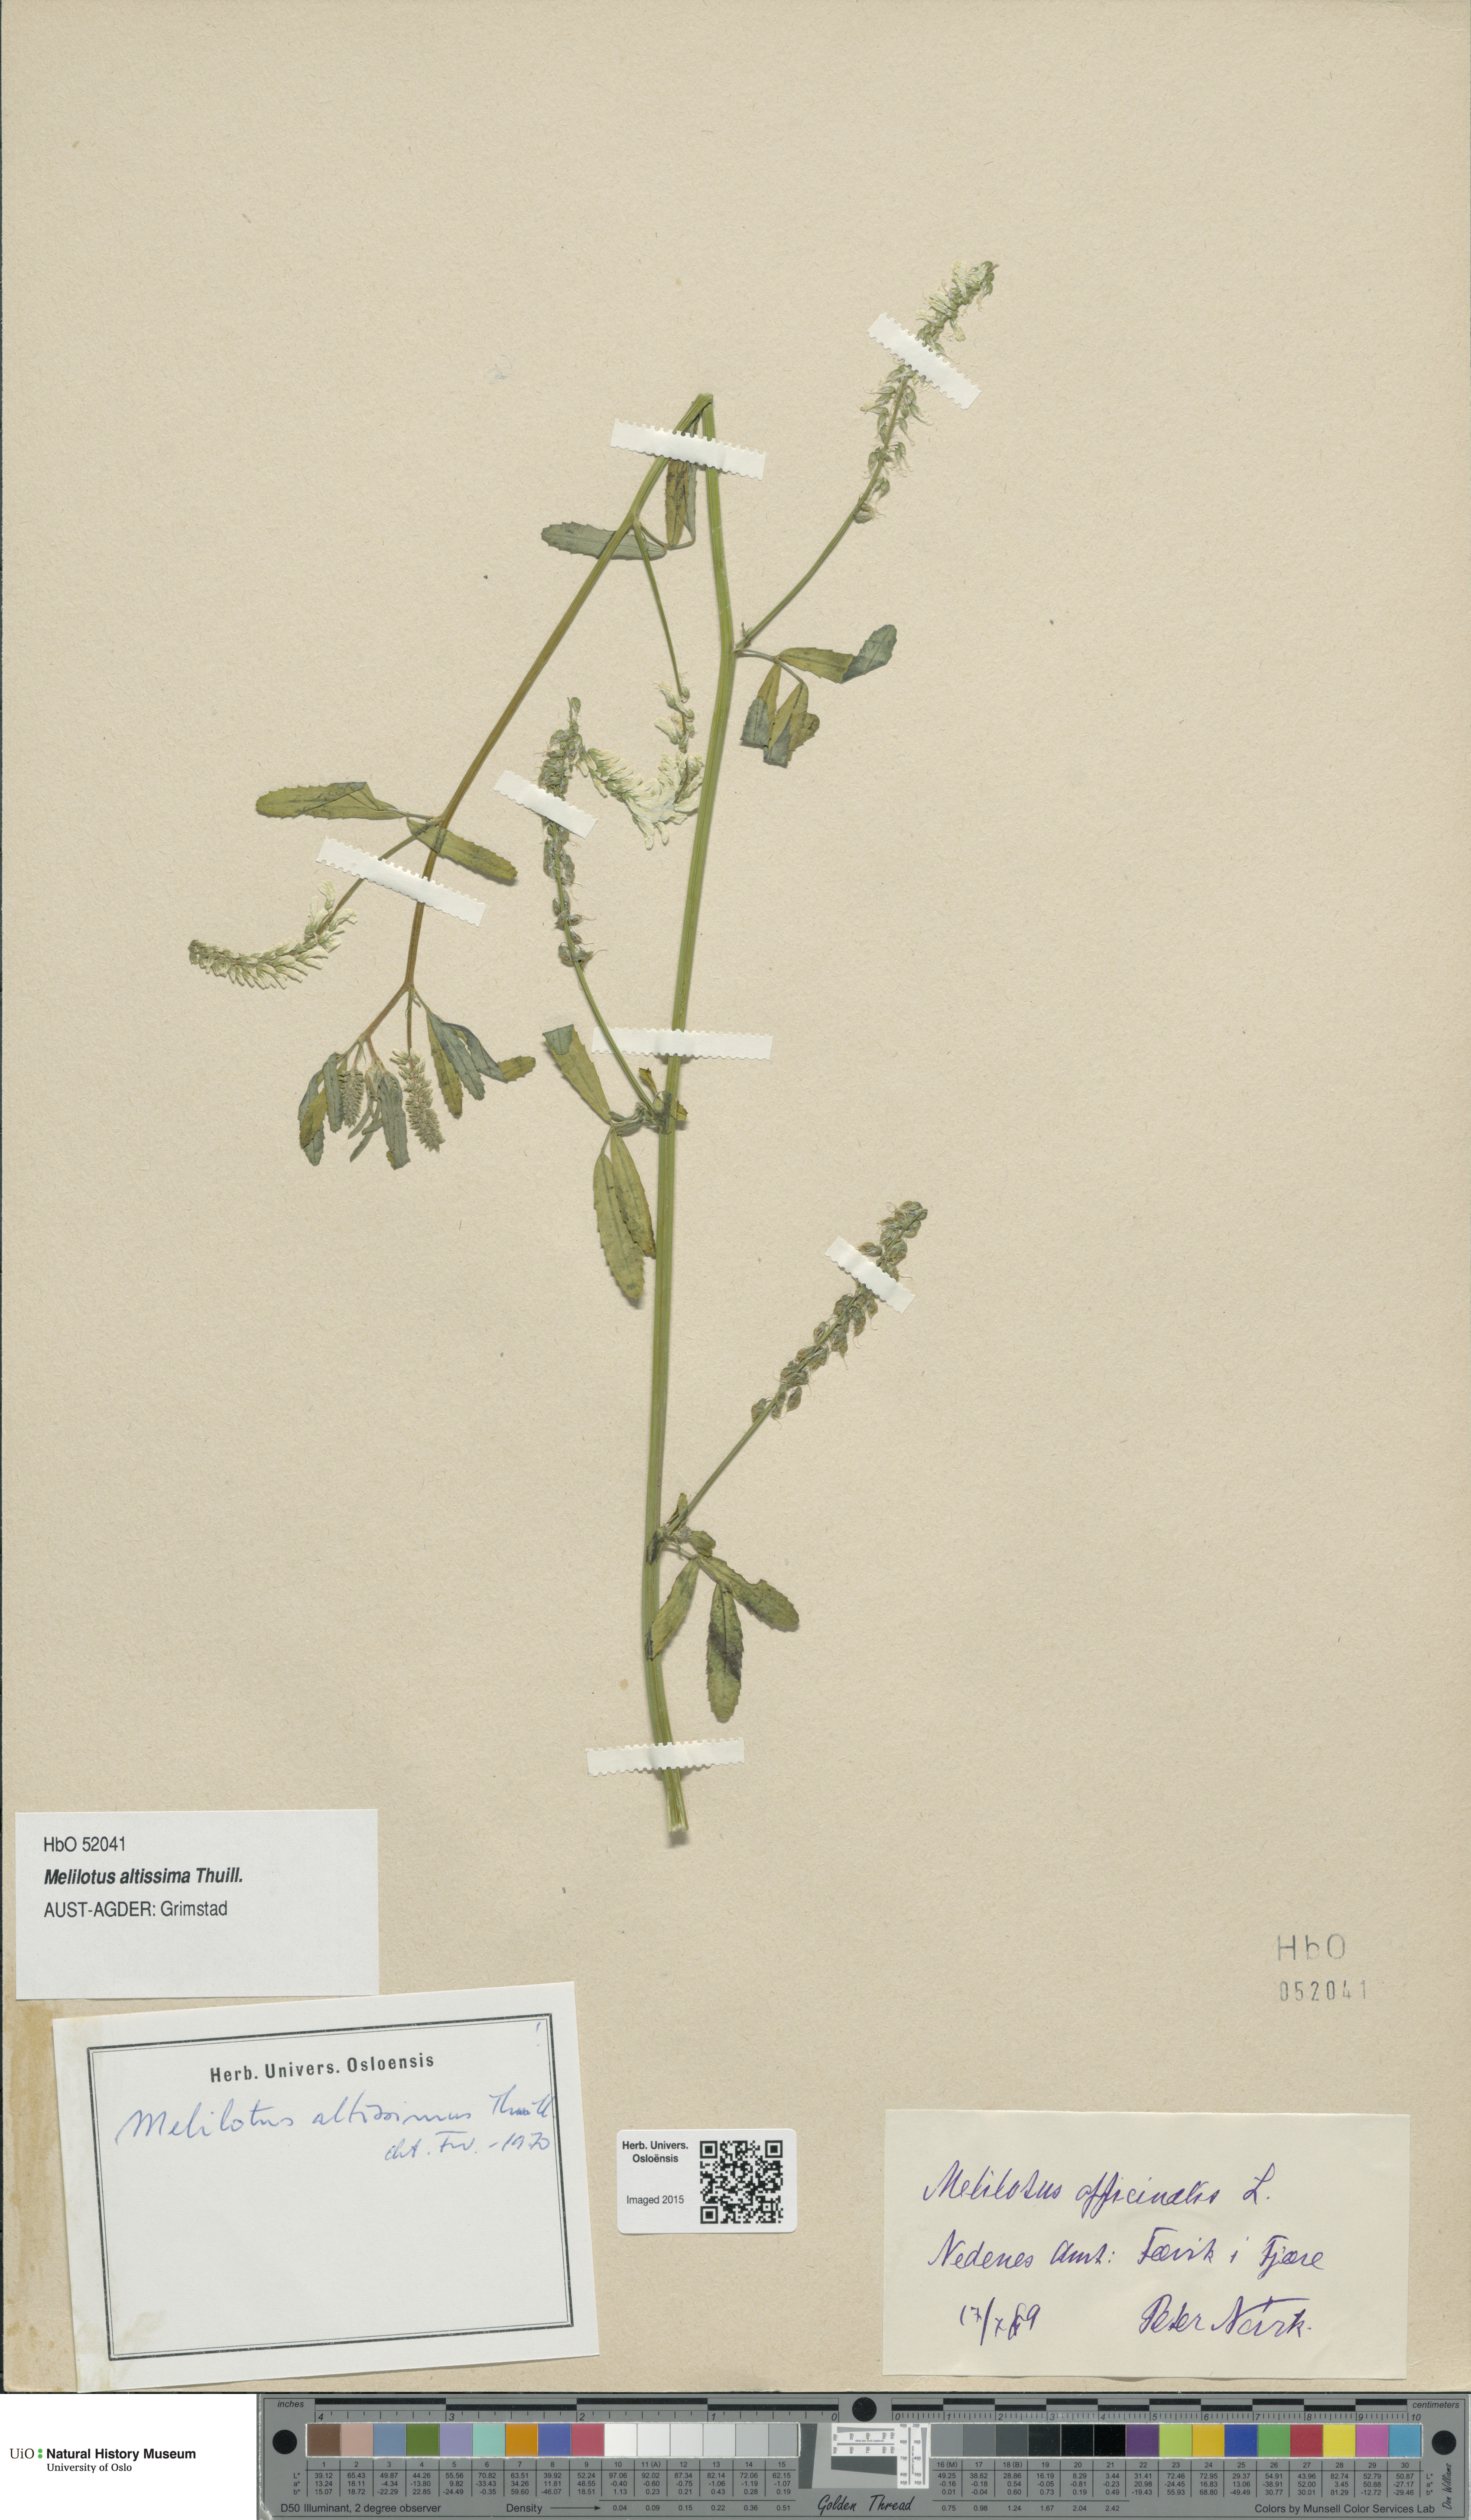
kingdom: Plantae
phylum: Tracheophyta
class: Magnoliopsida
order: Fabales
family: Fabaceae
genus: Melilotus
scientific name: Melilotus altissimus
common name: Tall melilot
